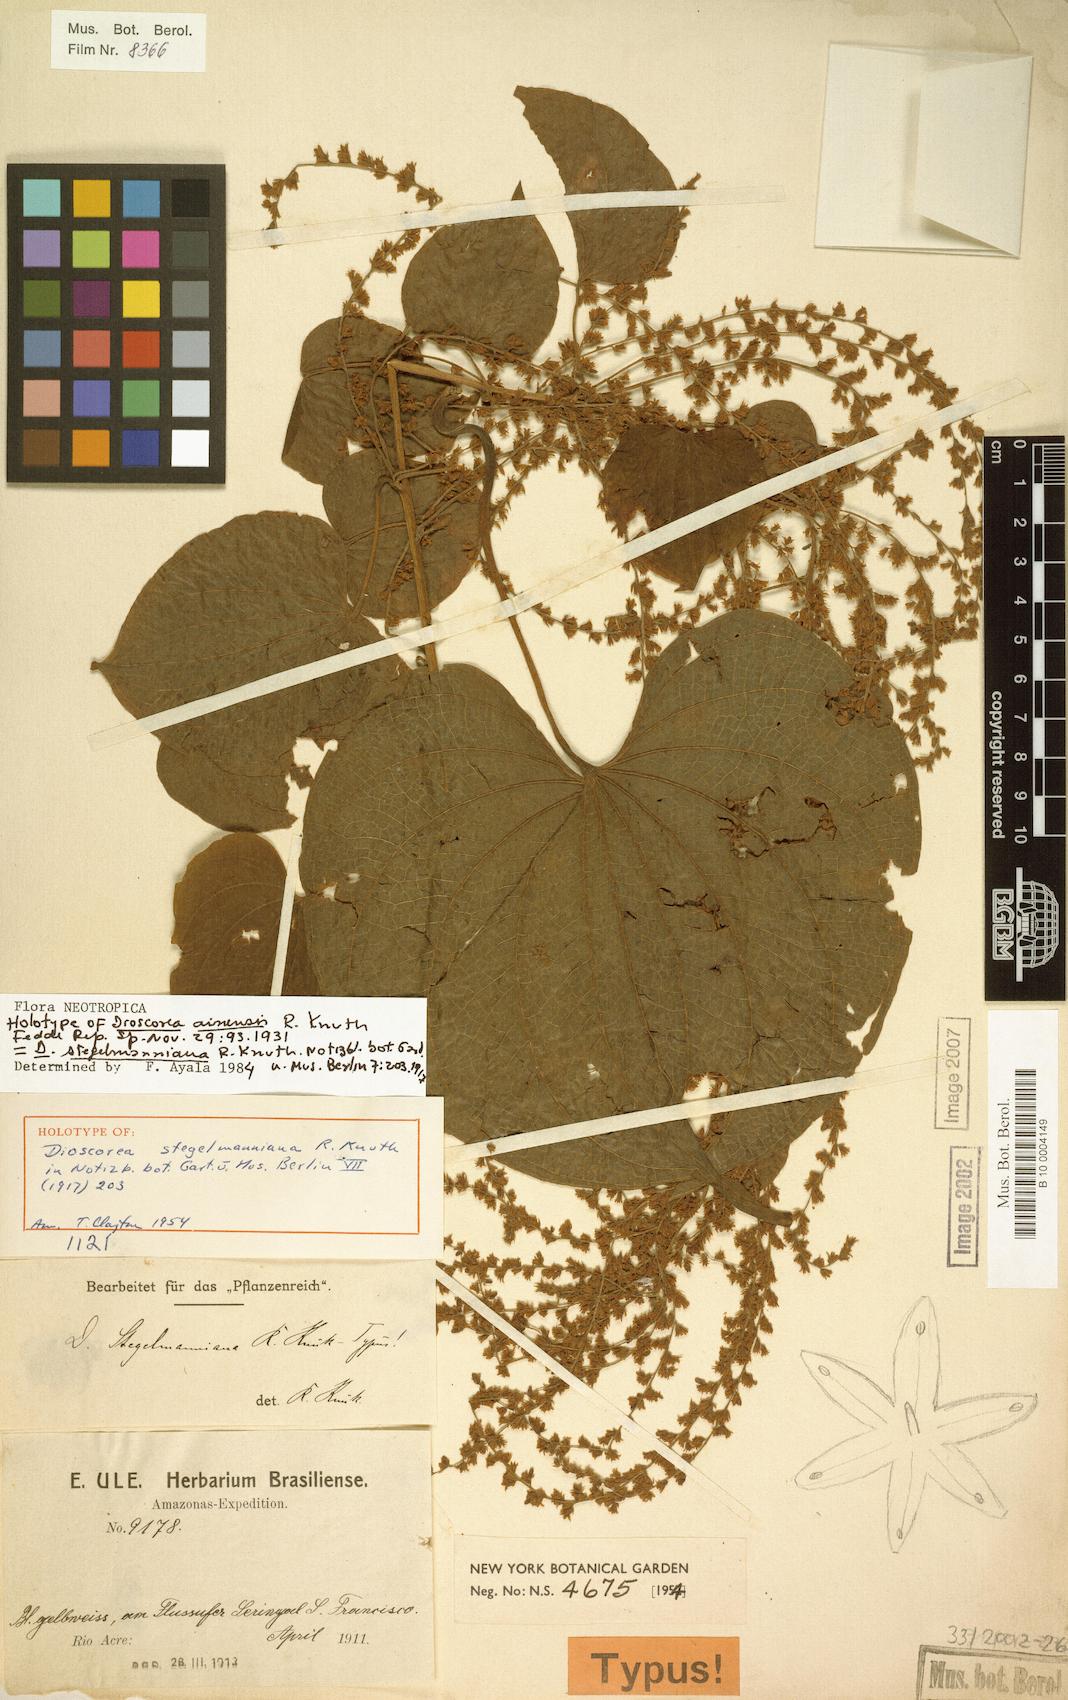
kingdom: Plantae
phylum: Tracheophyta
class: Liliopsida
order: Dioscoreales
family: Dioscoreaceae
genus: Dioscorea
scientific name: Dioscorea stegelmanniana
